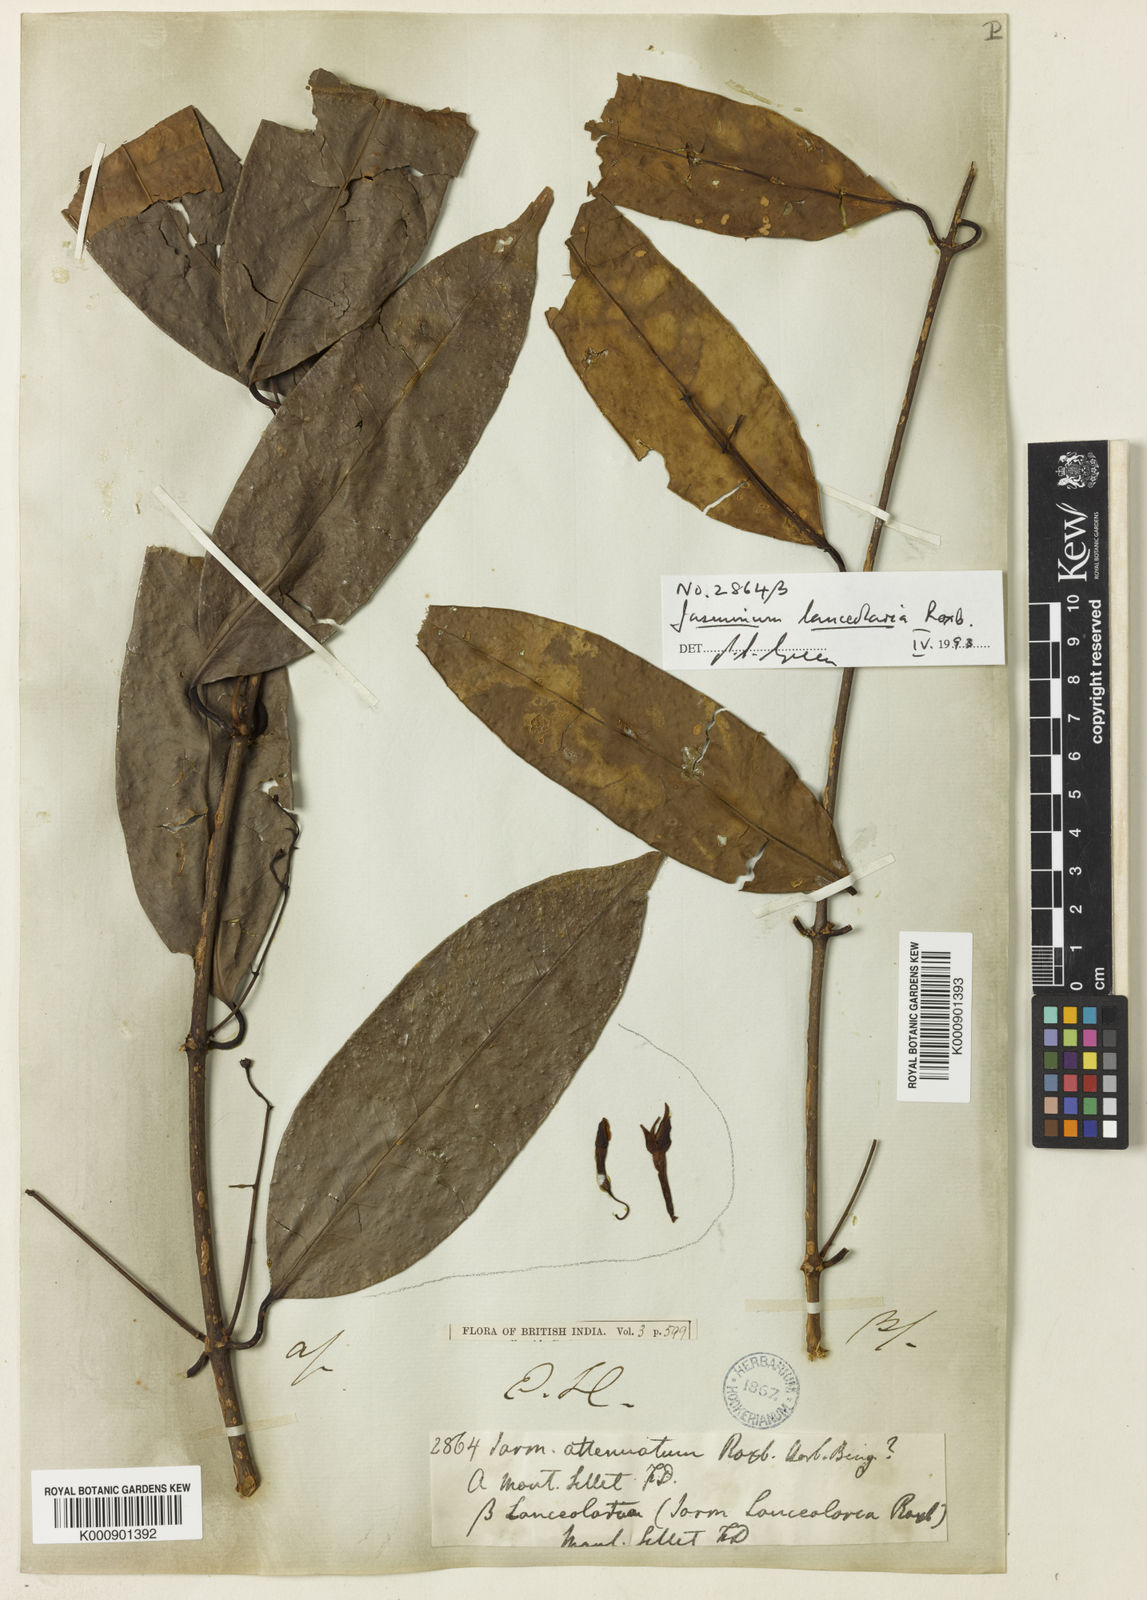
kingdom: Plantae
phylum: Tracheophyta
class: Magnoliopsida
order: Lamiales
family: Oleaceae
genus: Jasminum
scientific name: Jasminum
